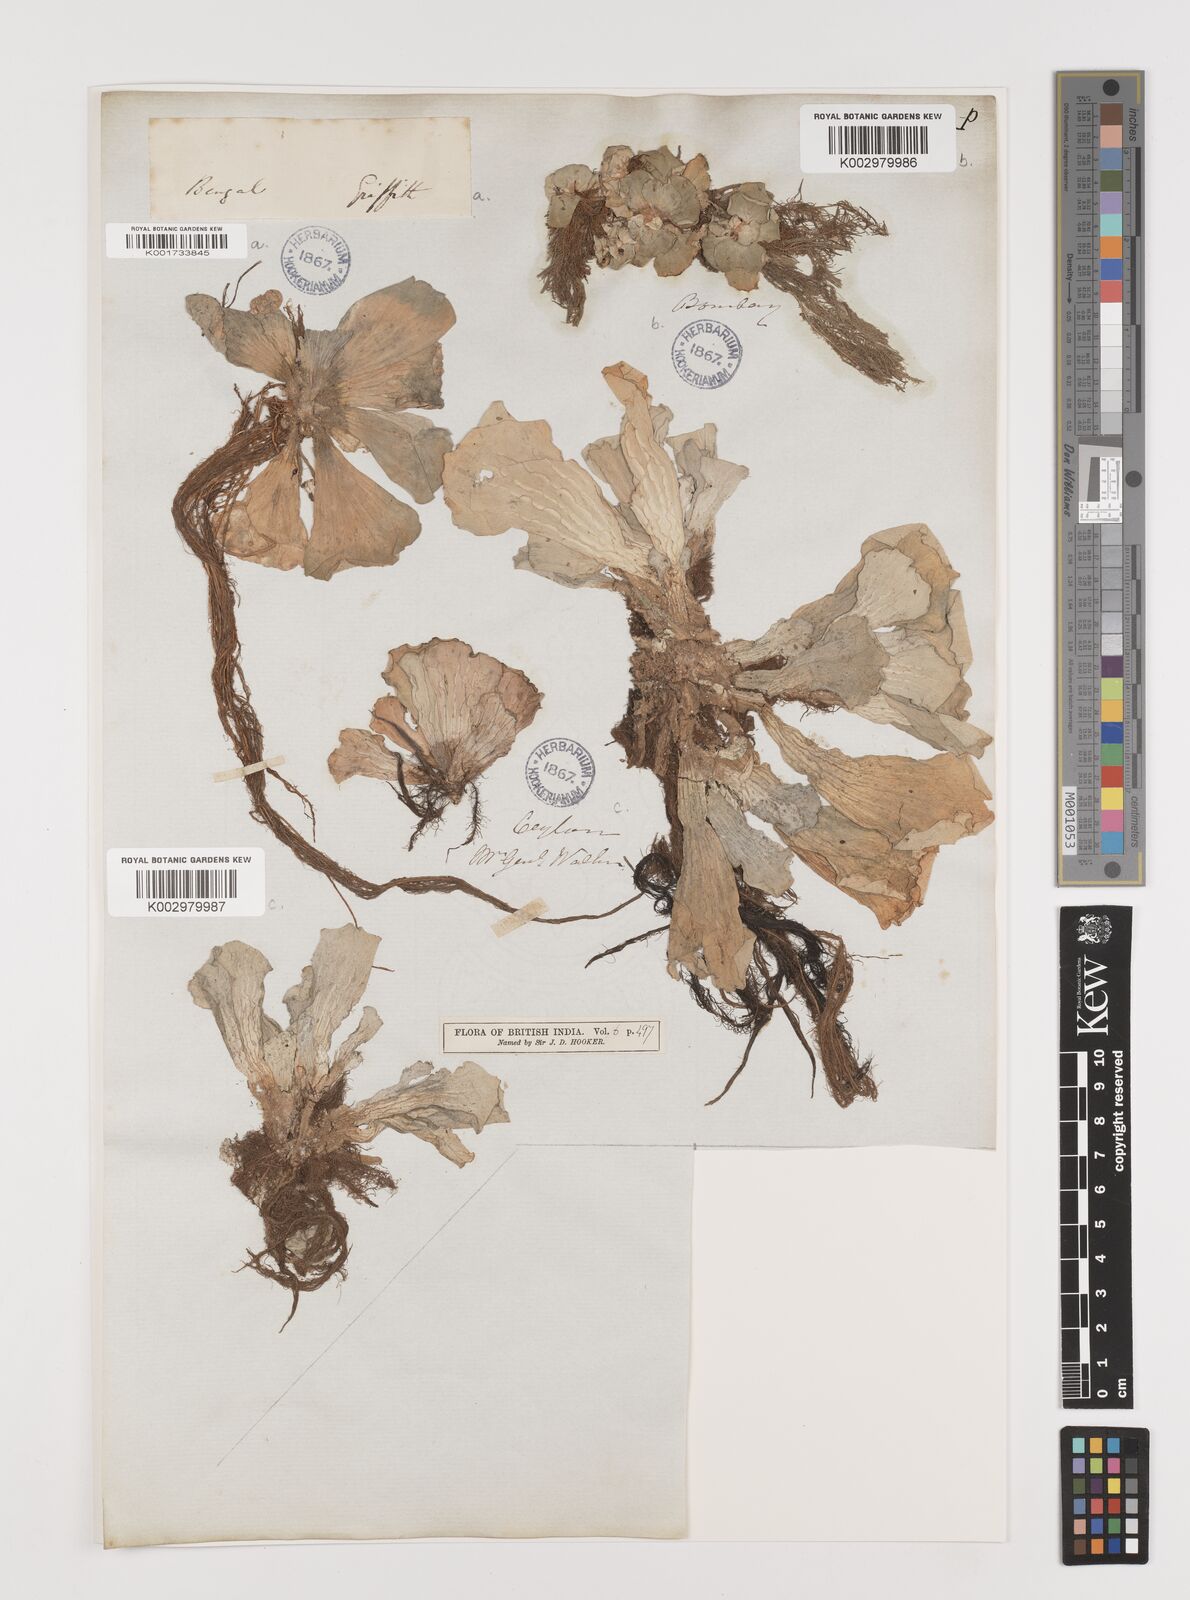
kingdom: Plantae
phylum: Tracheophyta
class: Liliopsida
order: Alismatales
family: Araceae
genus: Pistia
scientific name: Pistia stratiotes
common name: Water lettuce
